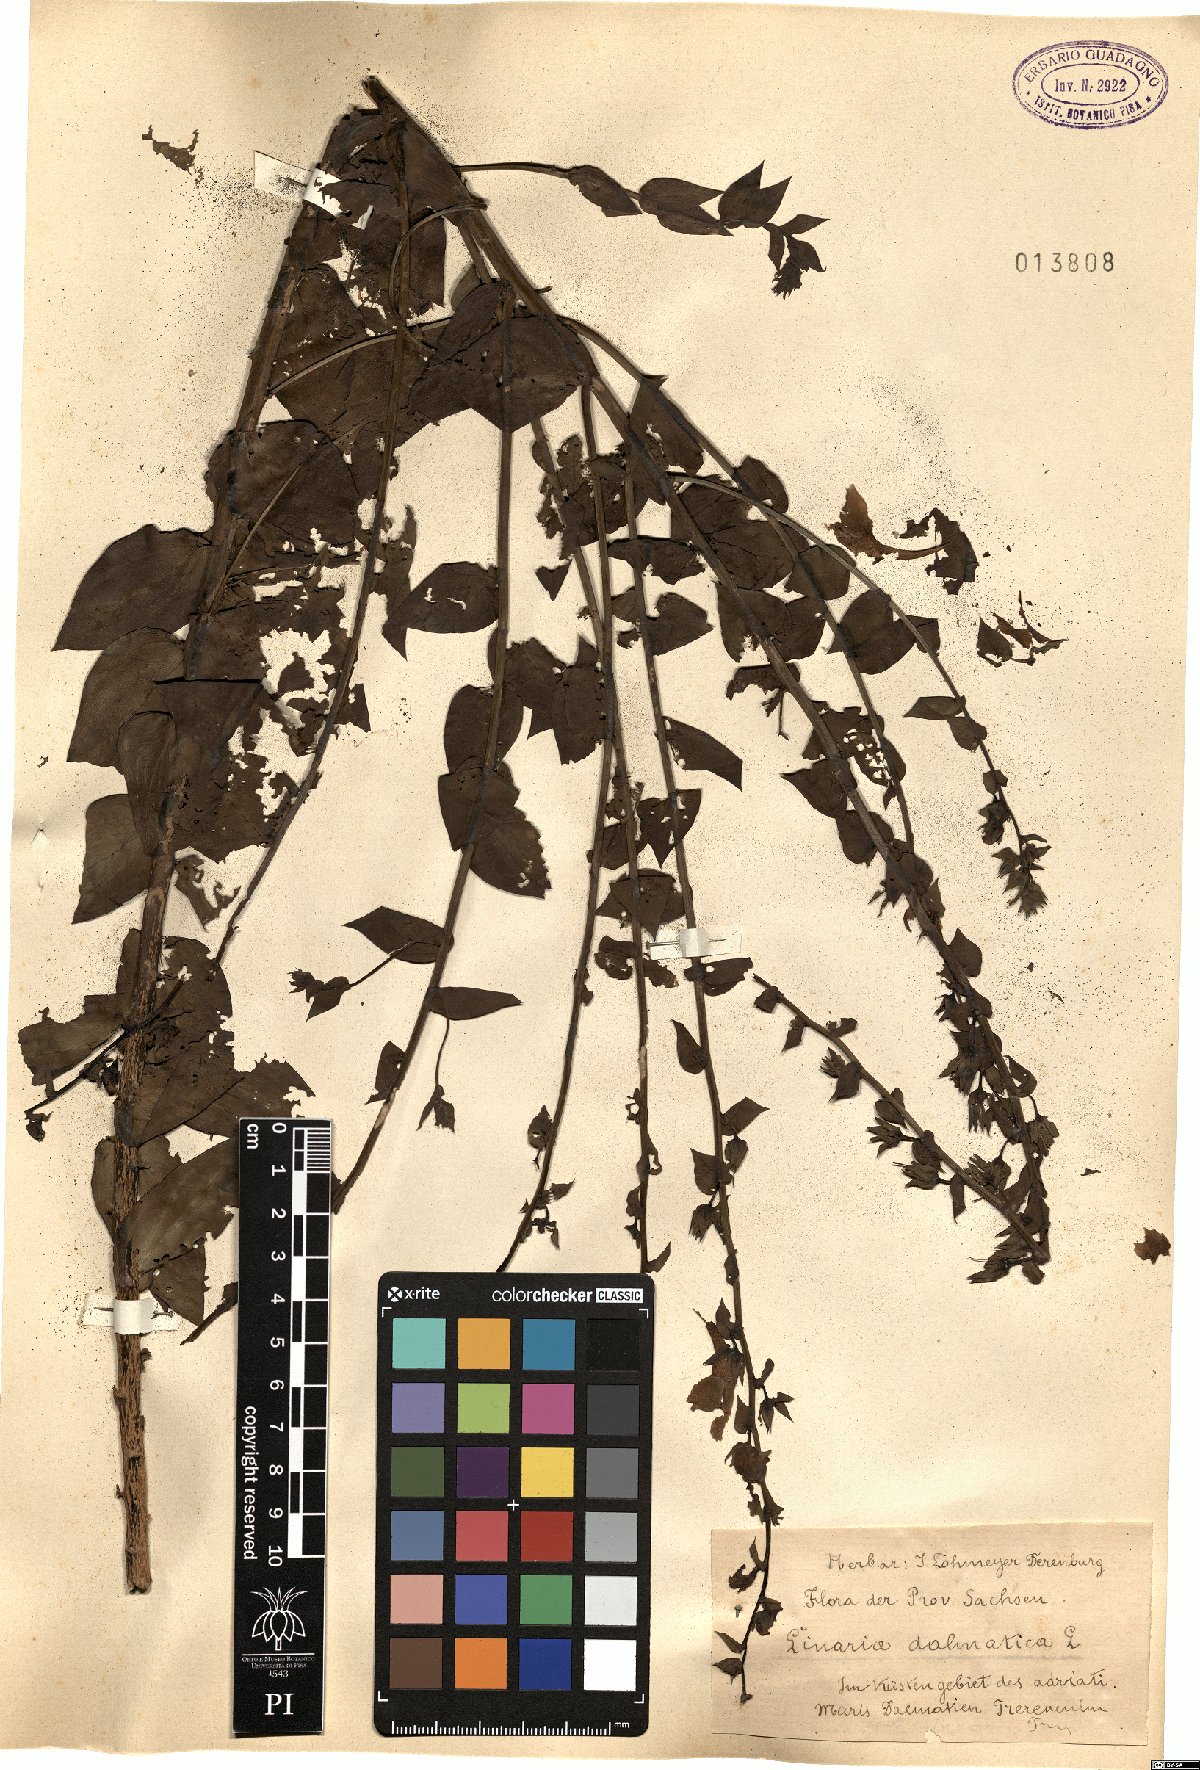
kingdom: Plantae
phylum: Tracheophyta
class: Magnoliopsida
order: Lamiales
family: Plantaginaceae
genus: Linaria
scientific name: Linaria dalmatica
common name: Dalmatian toadflax
